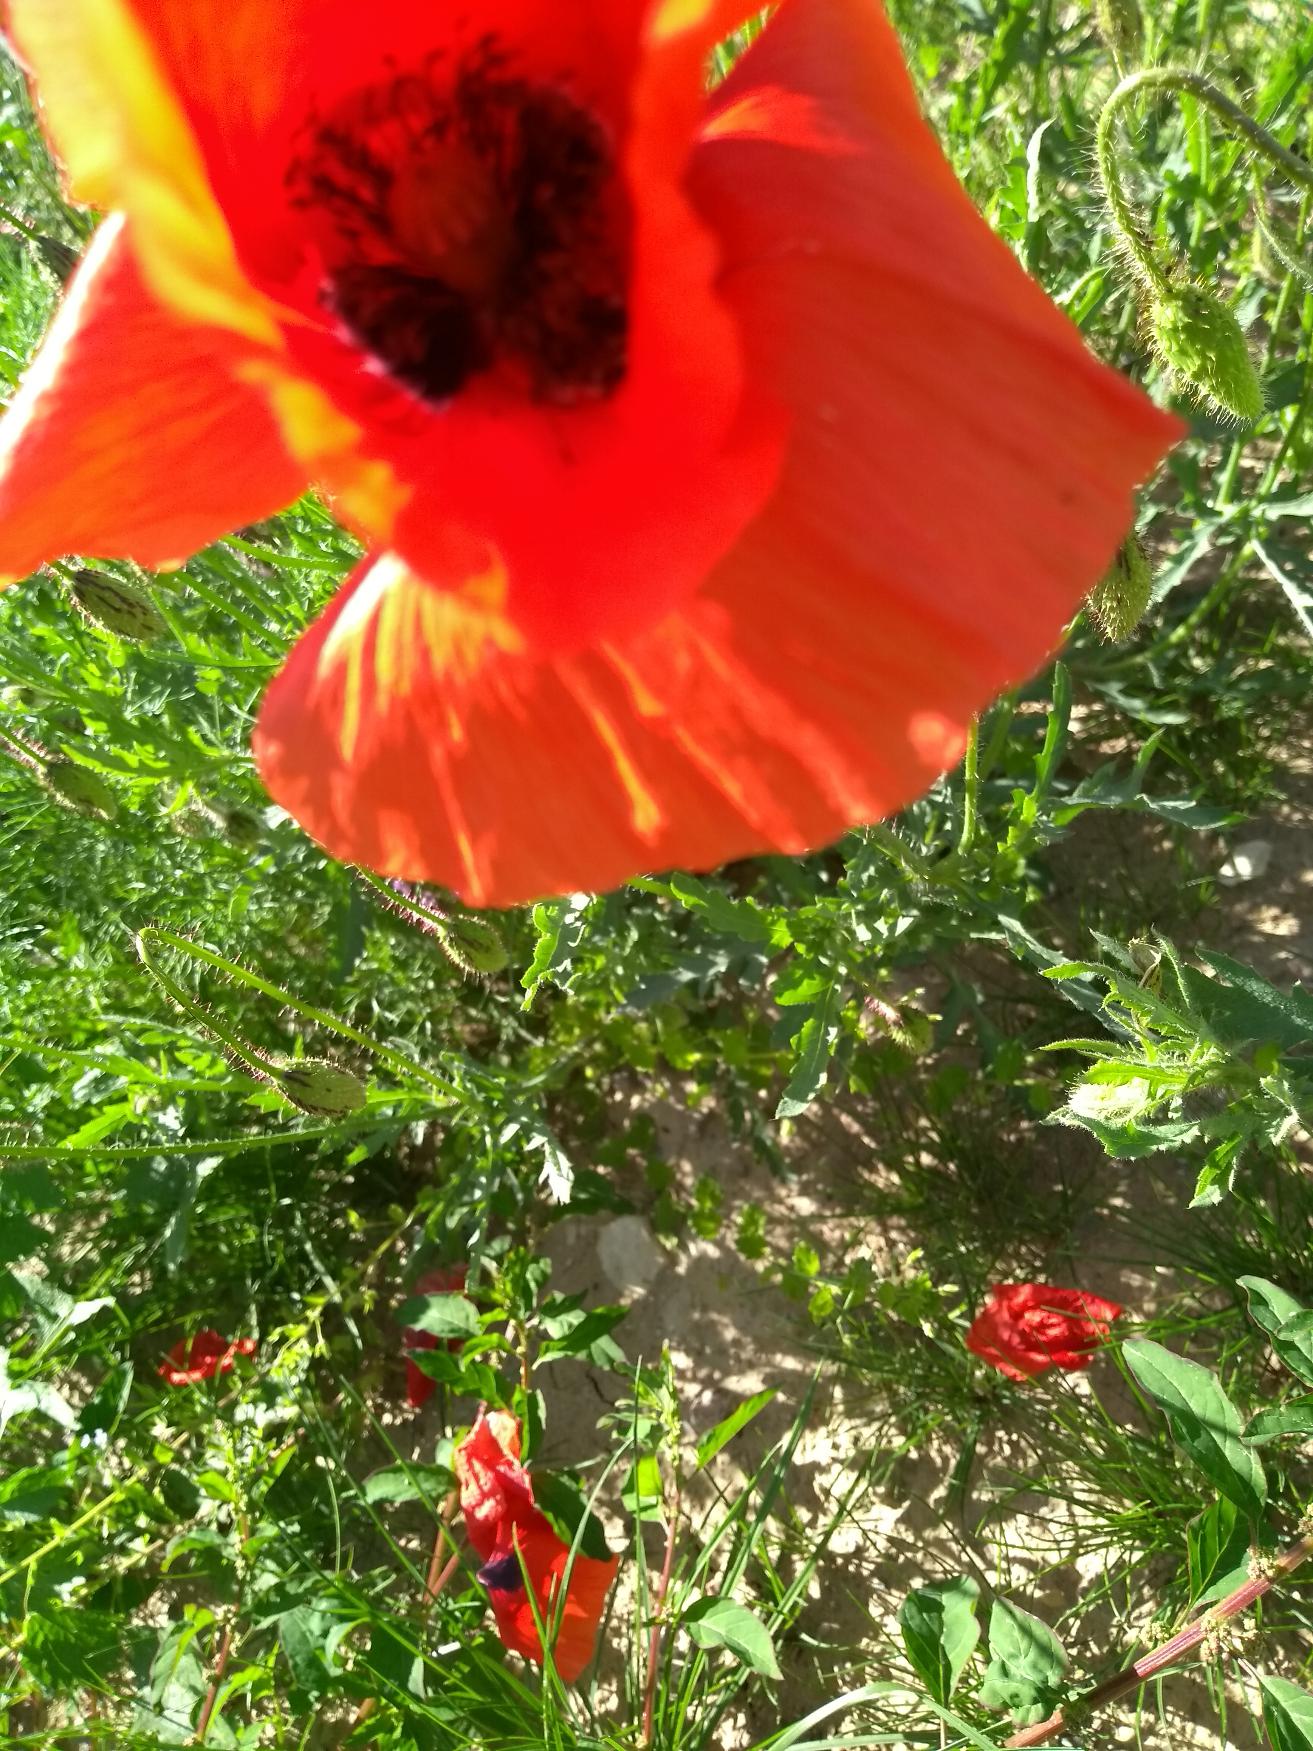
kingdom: Plantae
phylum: Tracheophyta
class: Magnoliopsida
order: Ranunculales
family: Papaveraceae
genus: Papaver
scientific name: Papaver rhoeas
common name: Korn-valmue
